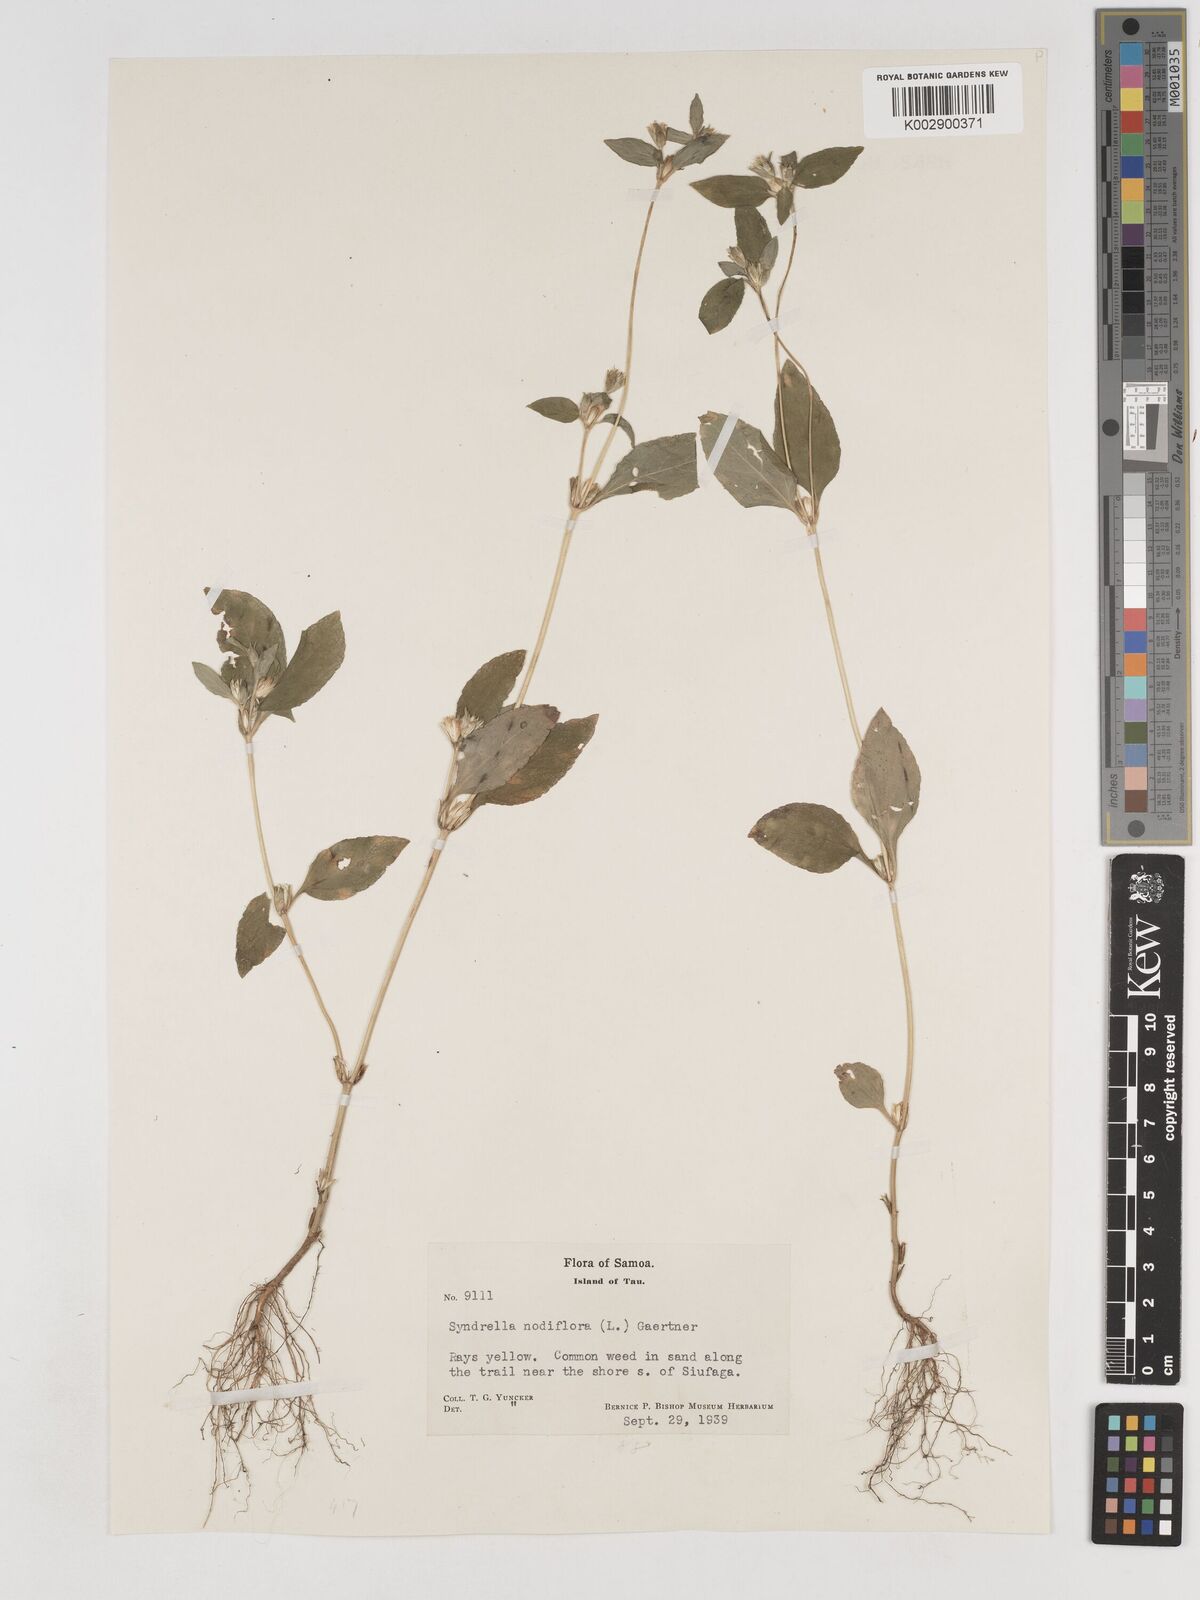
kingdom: Plantae
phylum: Tracheophyta
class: Magnoliopsida
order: Asterales
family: Asteraceae
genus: Synedrella
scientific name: Synedrella nodiflora
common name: Nodeweed
